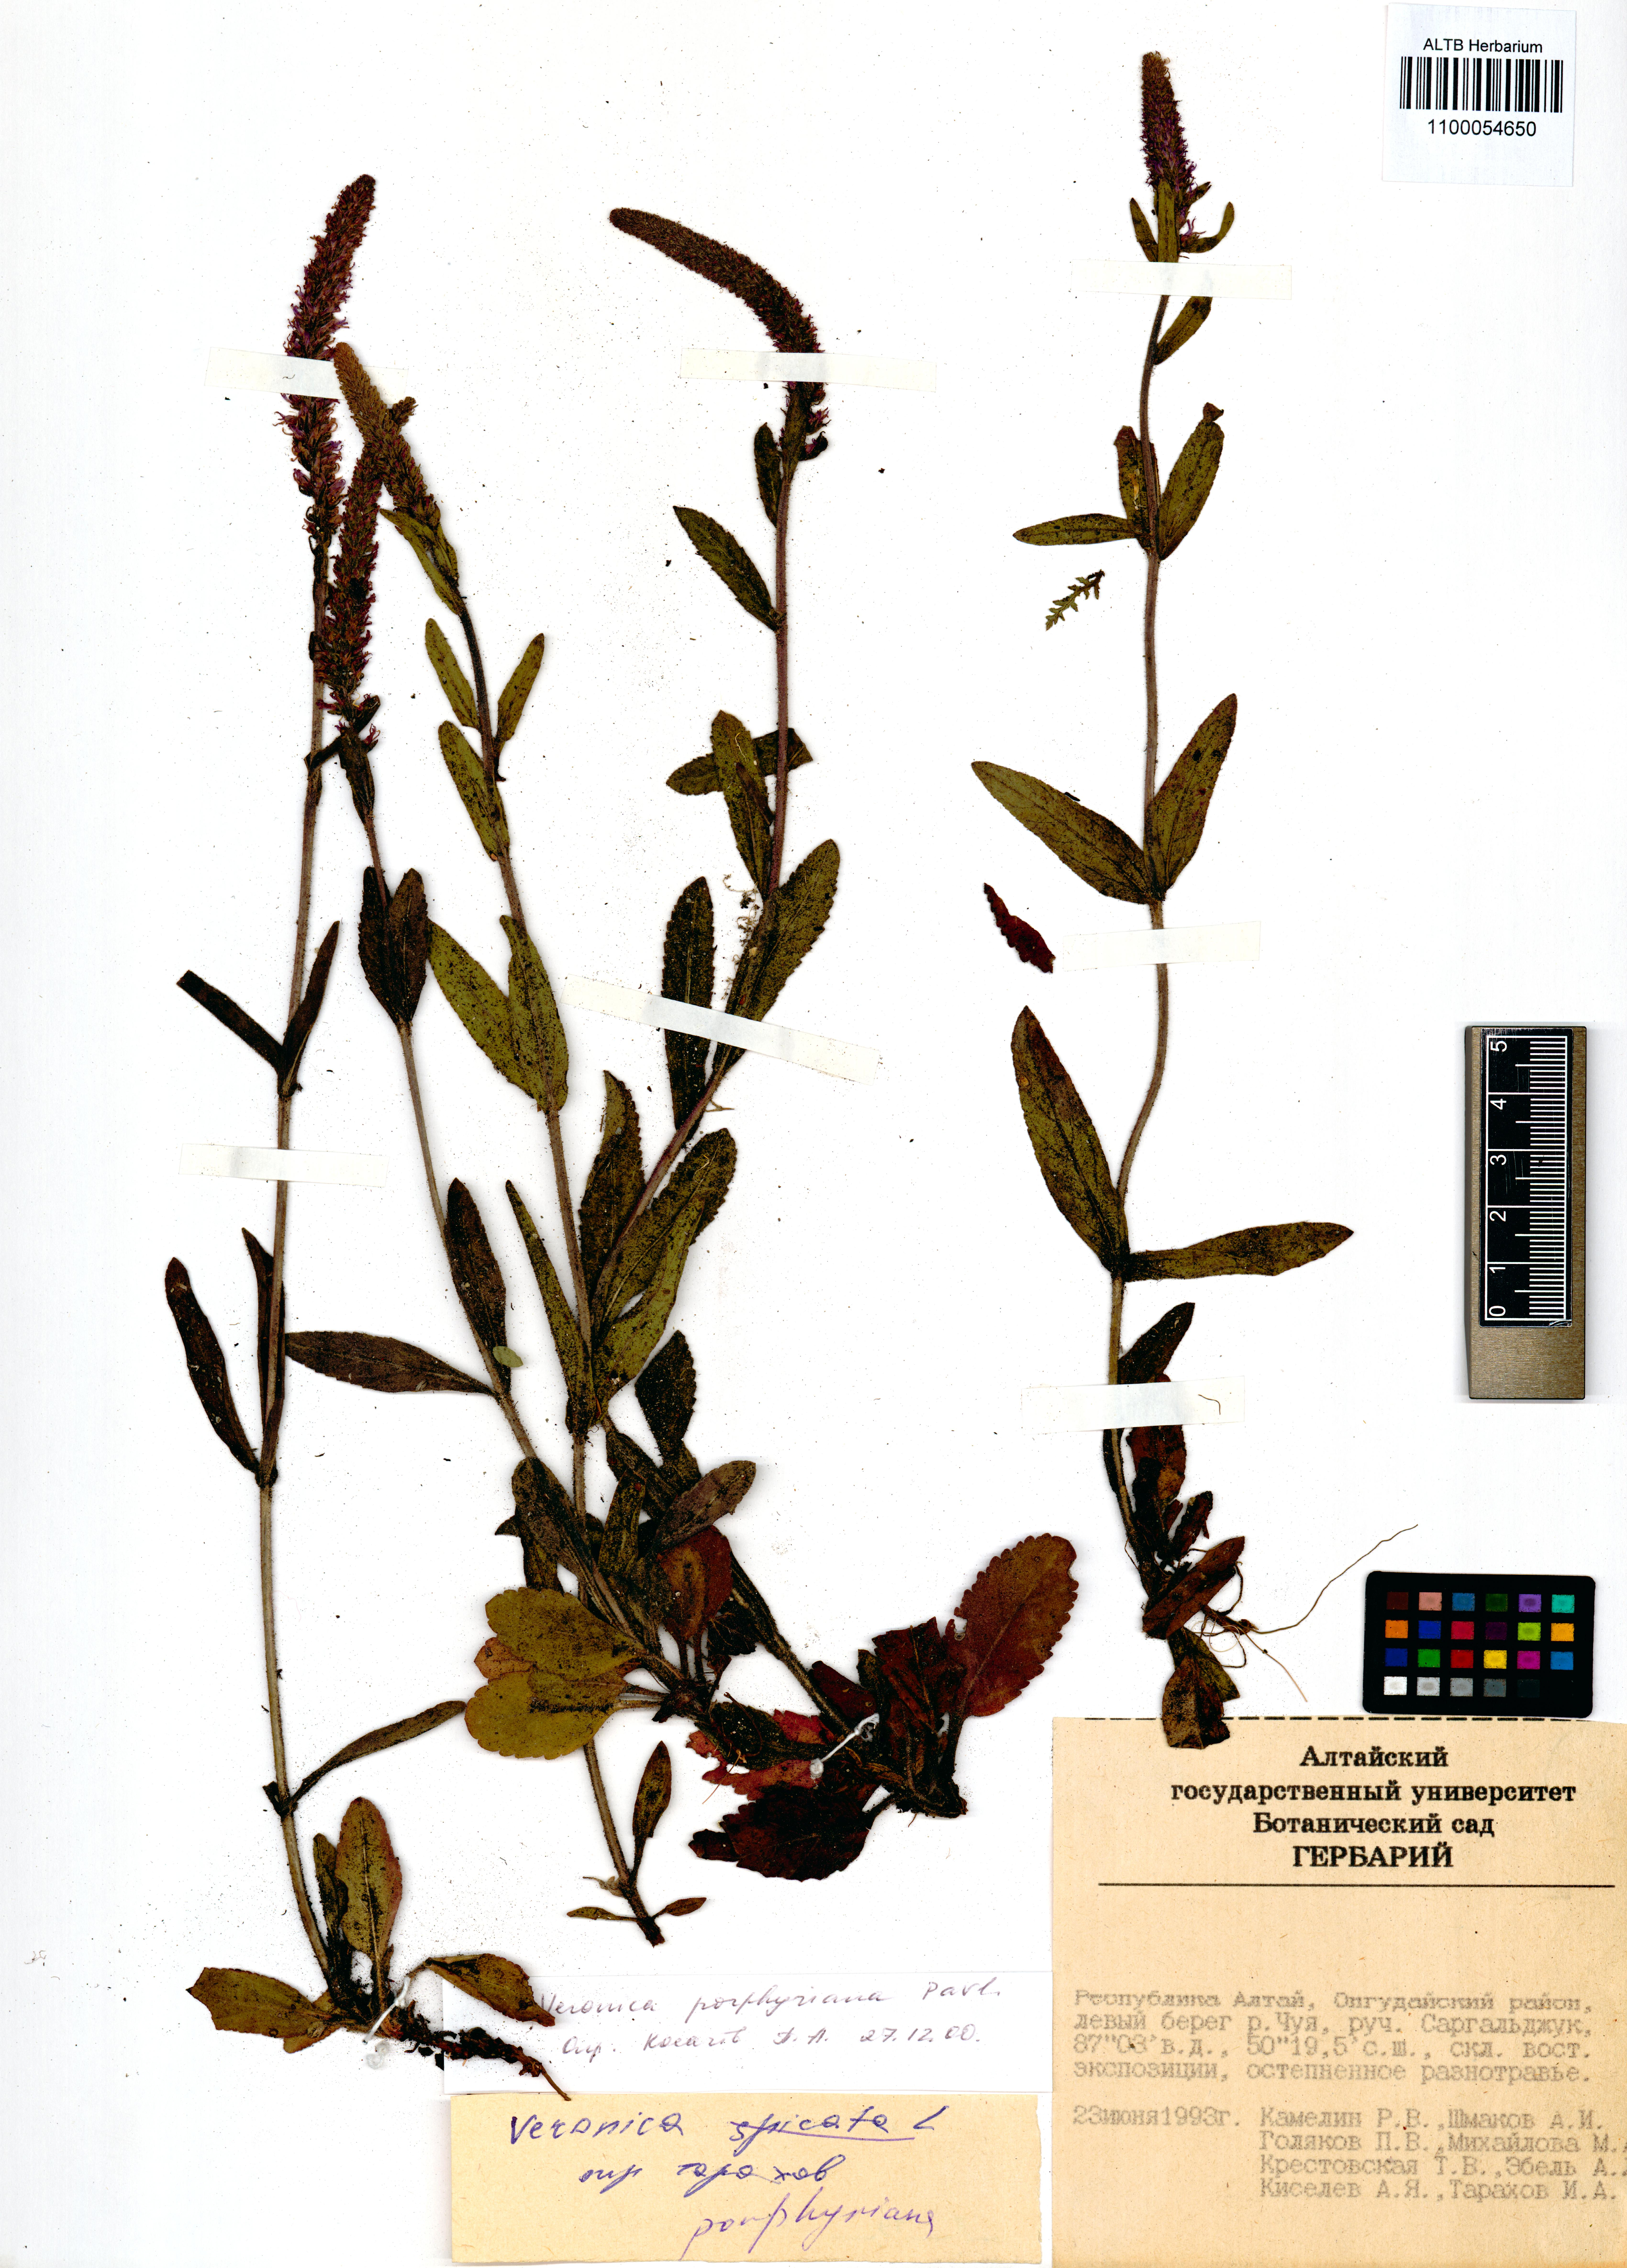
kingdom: Plantae
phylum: Tracheophyta
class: Magnoliopsida
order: Lamiales
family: Plantaginaceae
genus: Veronica
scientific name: Veronica porphyriana
